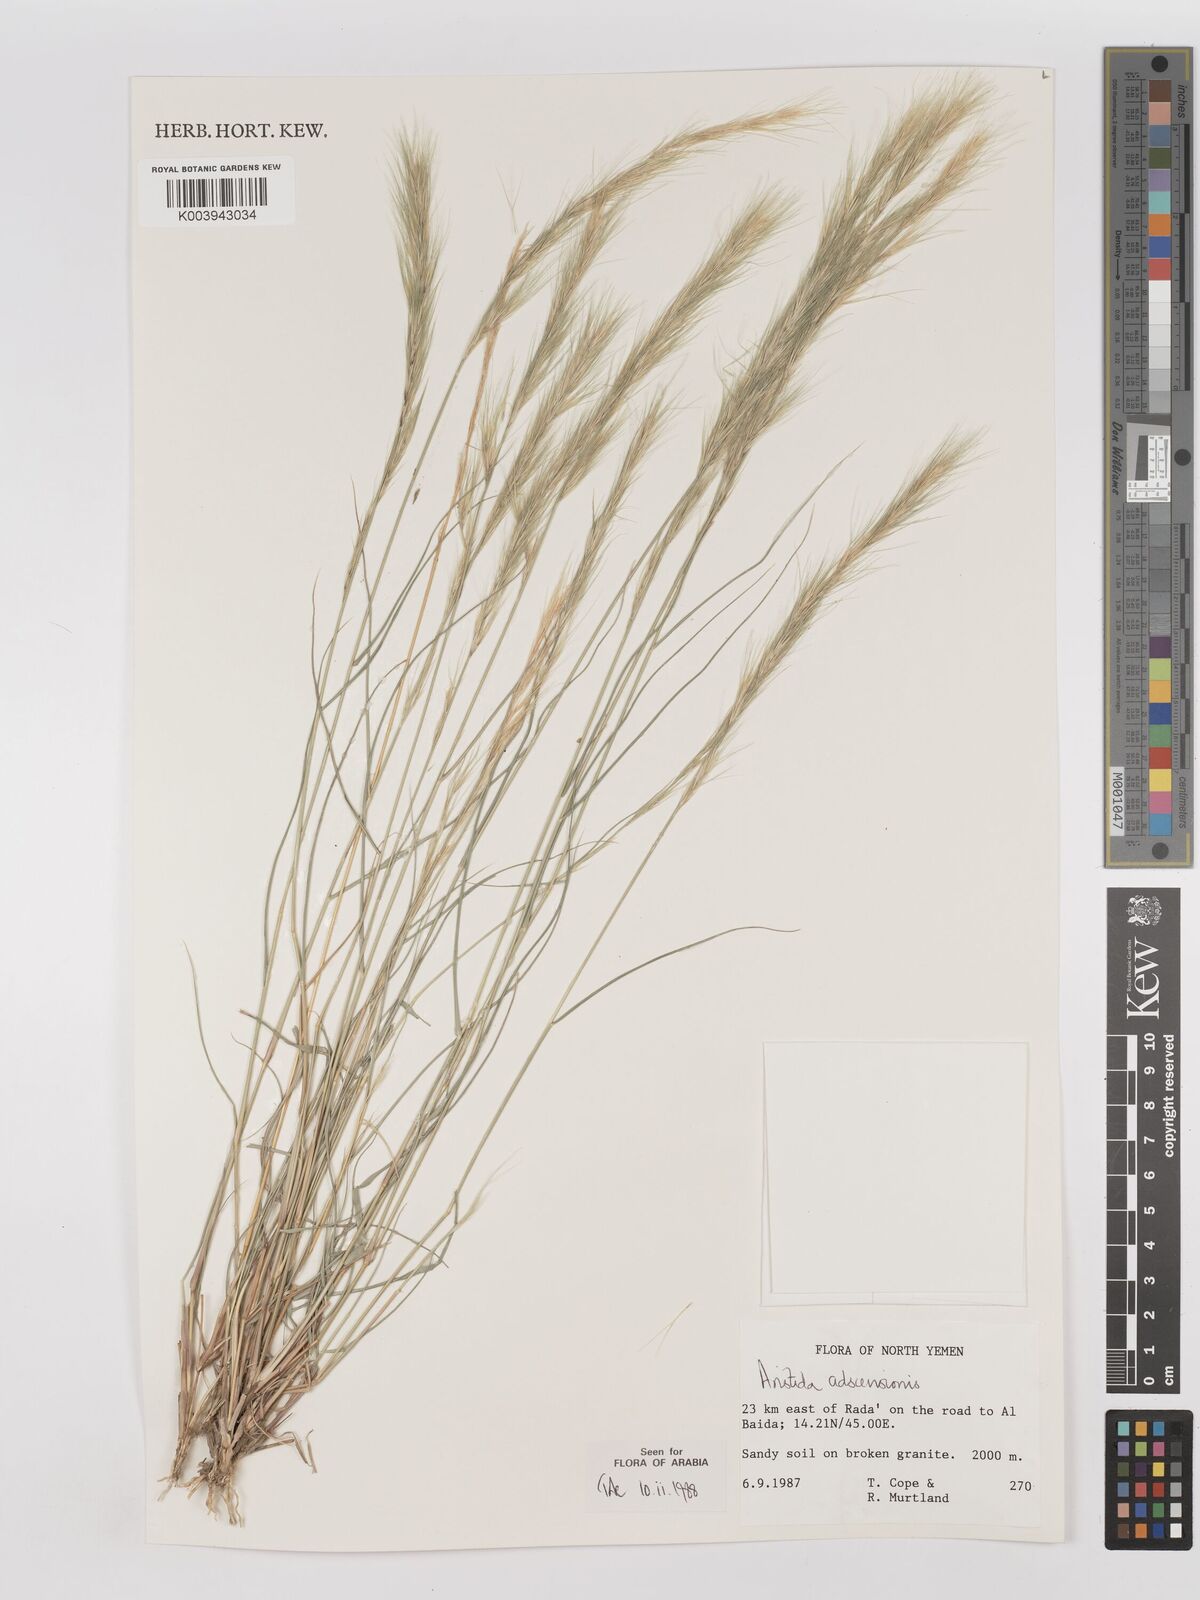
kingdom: Plantae
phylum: Tracheophyta
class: Liliopsida
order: Poales
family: Poaceae
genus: Aristida
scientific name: Aristida adscensionis
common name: Sixweeks threeawn
